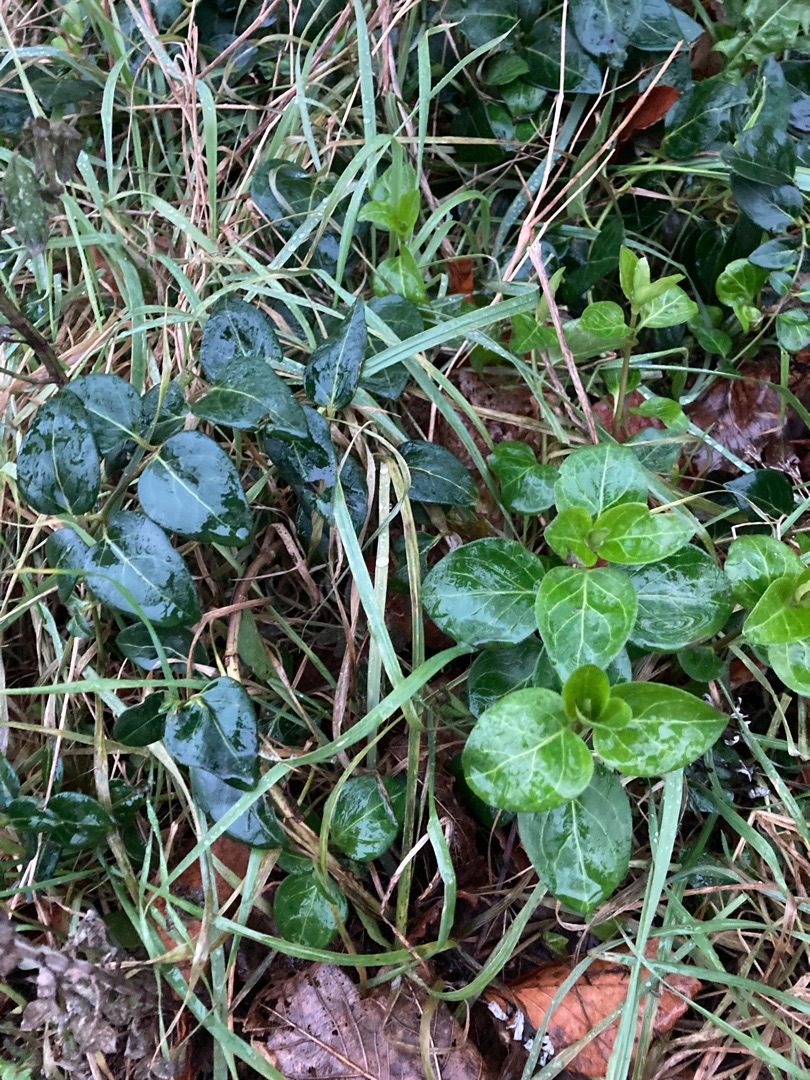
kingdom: Plantae
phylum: Tracheophyta
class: Magnoliopsida
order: Gentianales
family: Apocynaceae
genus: Vinca
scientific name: Vinca major
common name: Stor singrøn
